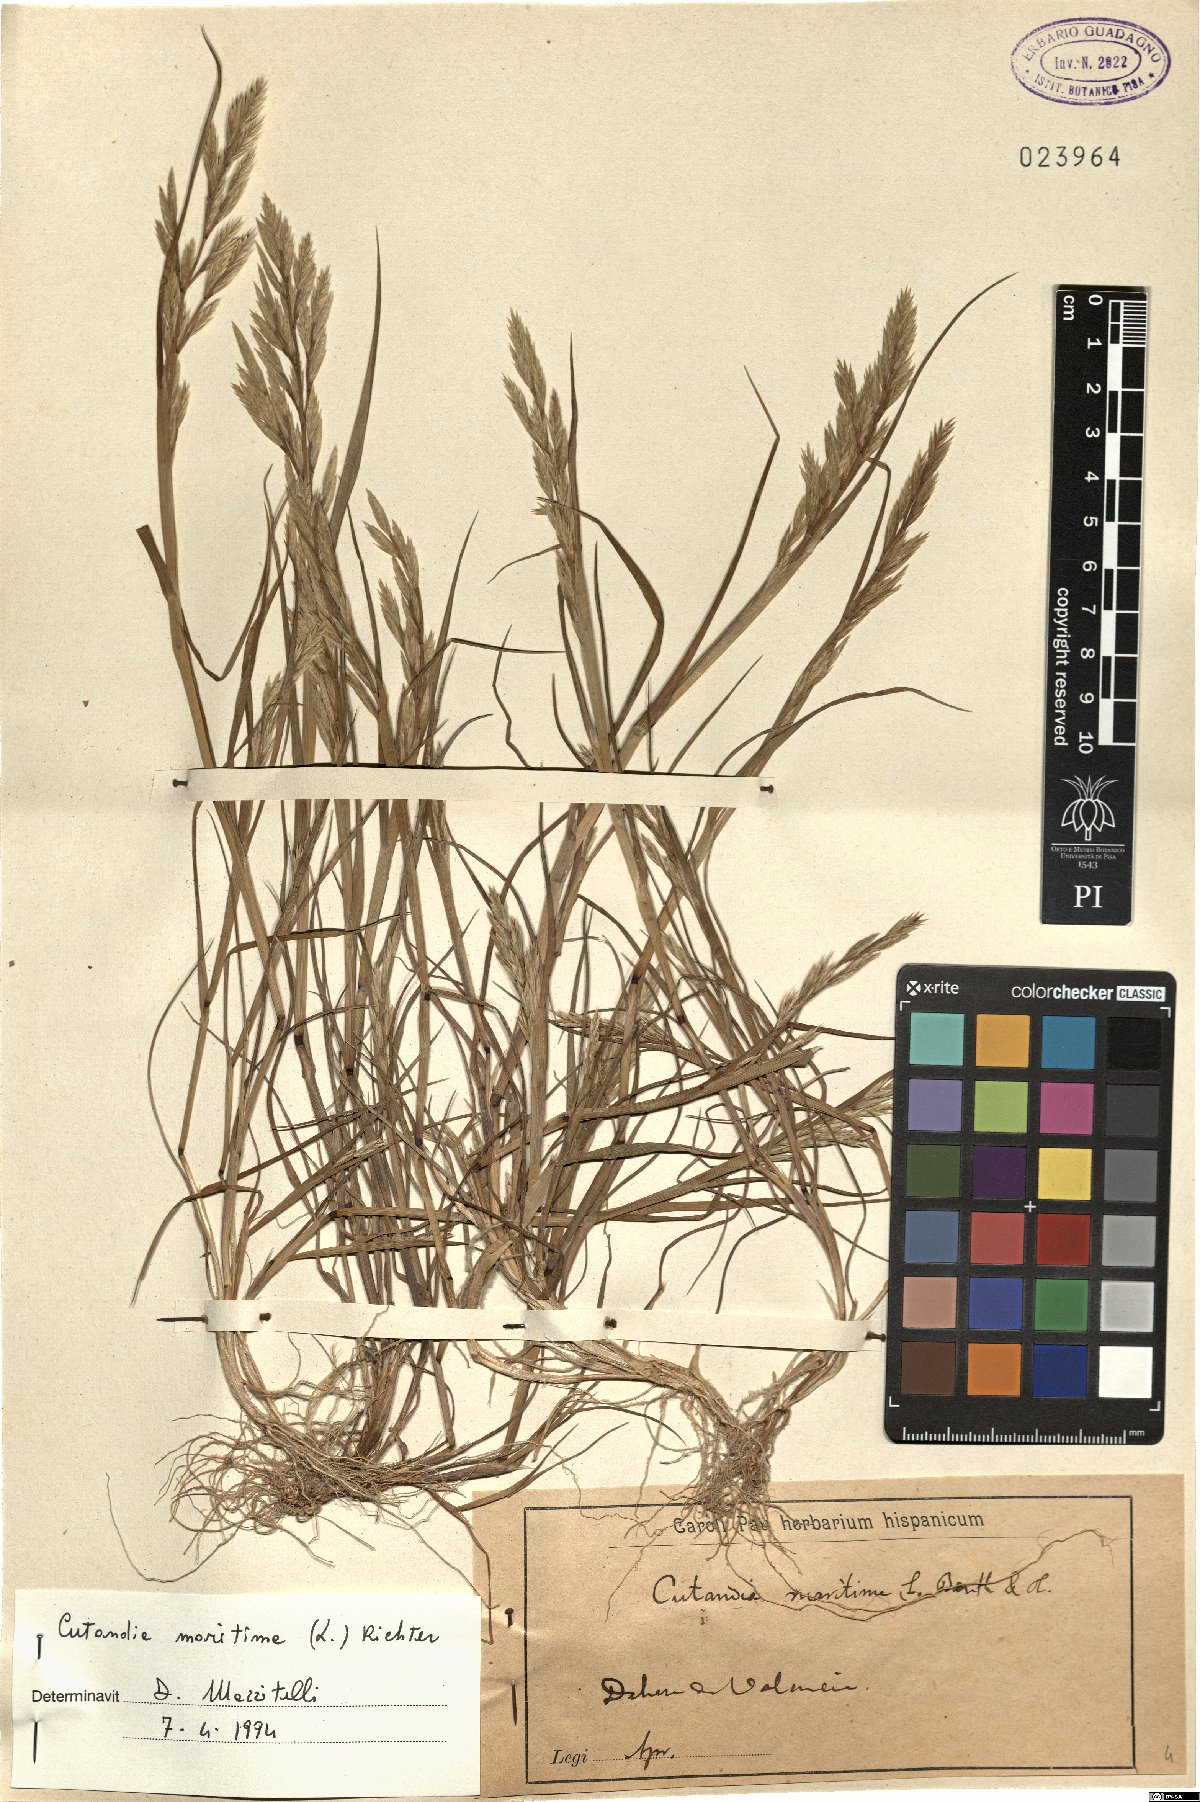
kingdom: Plantae
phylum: Tracheophyta
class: Liliopsida
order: Poales
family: Poaceae
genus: Cutandia
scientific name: Cutandia maritima
